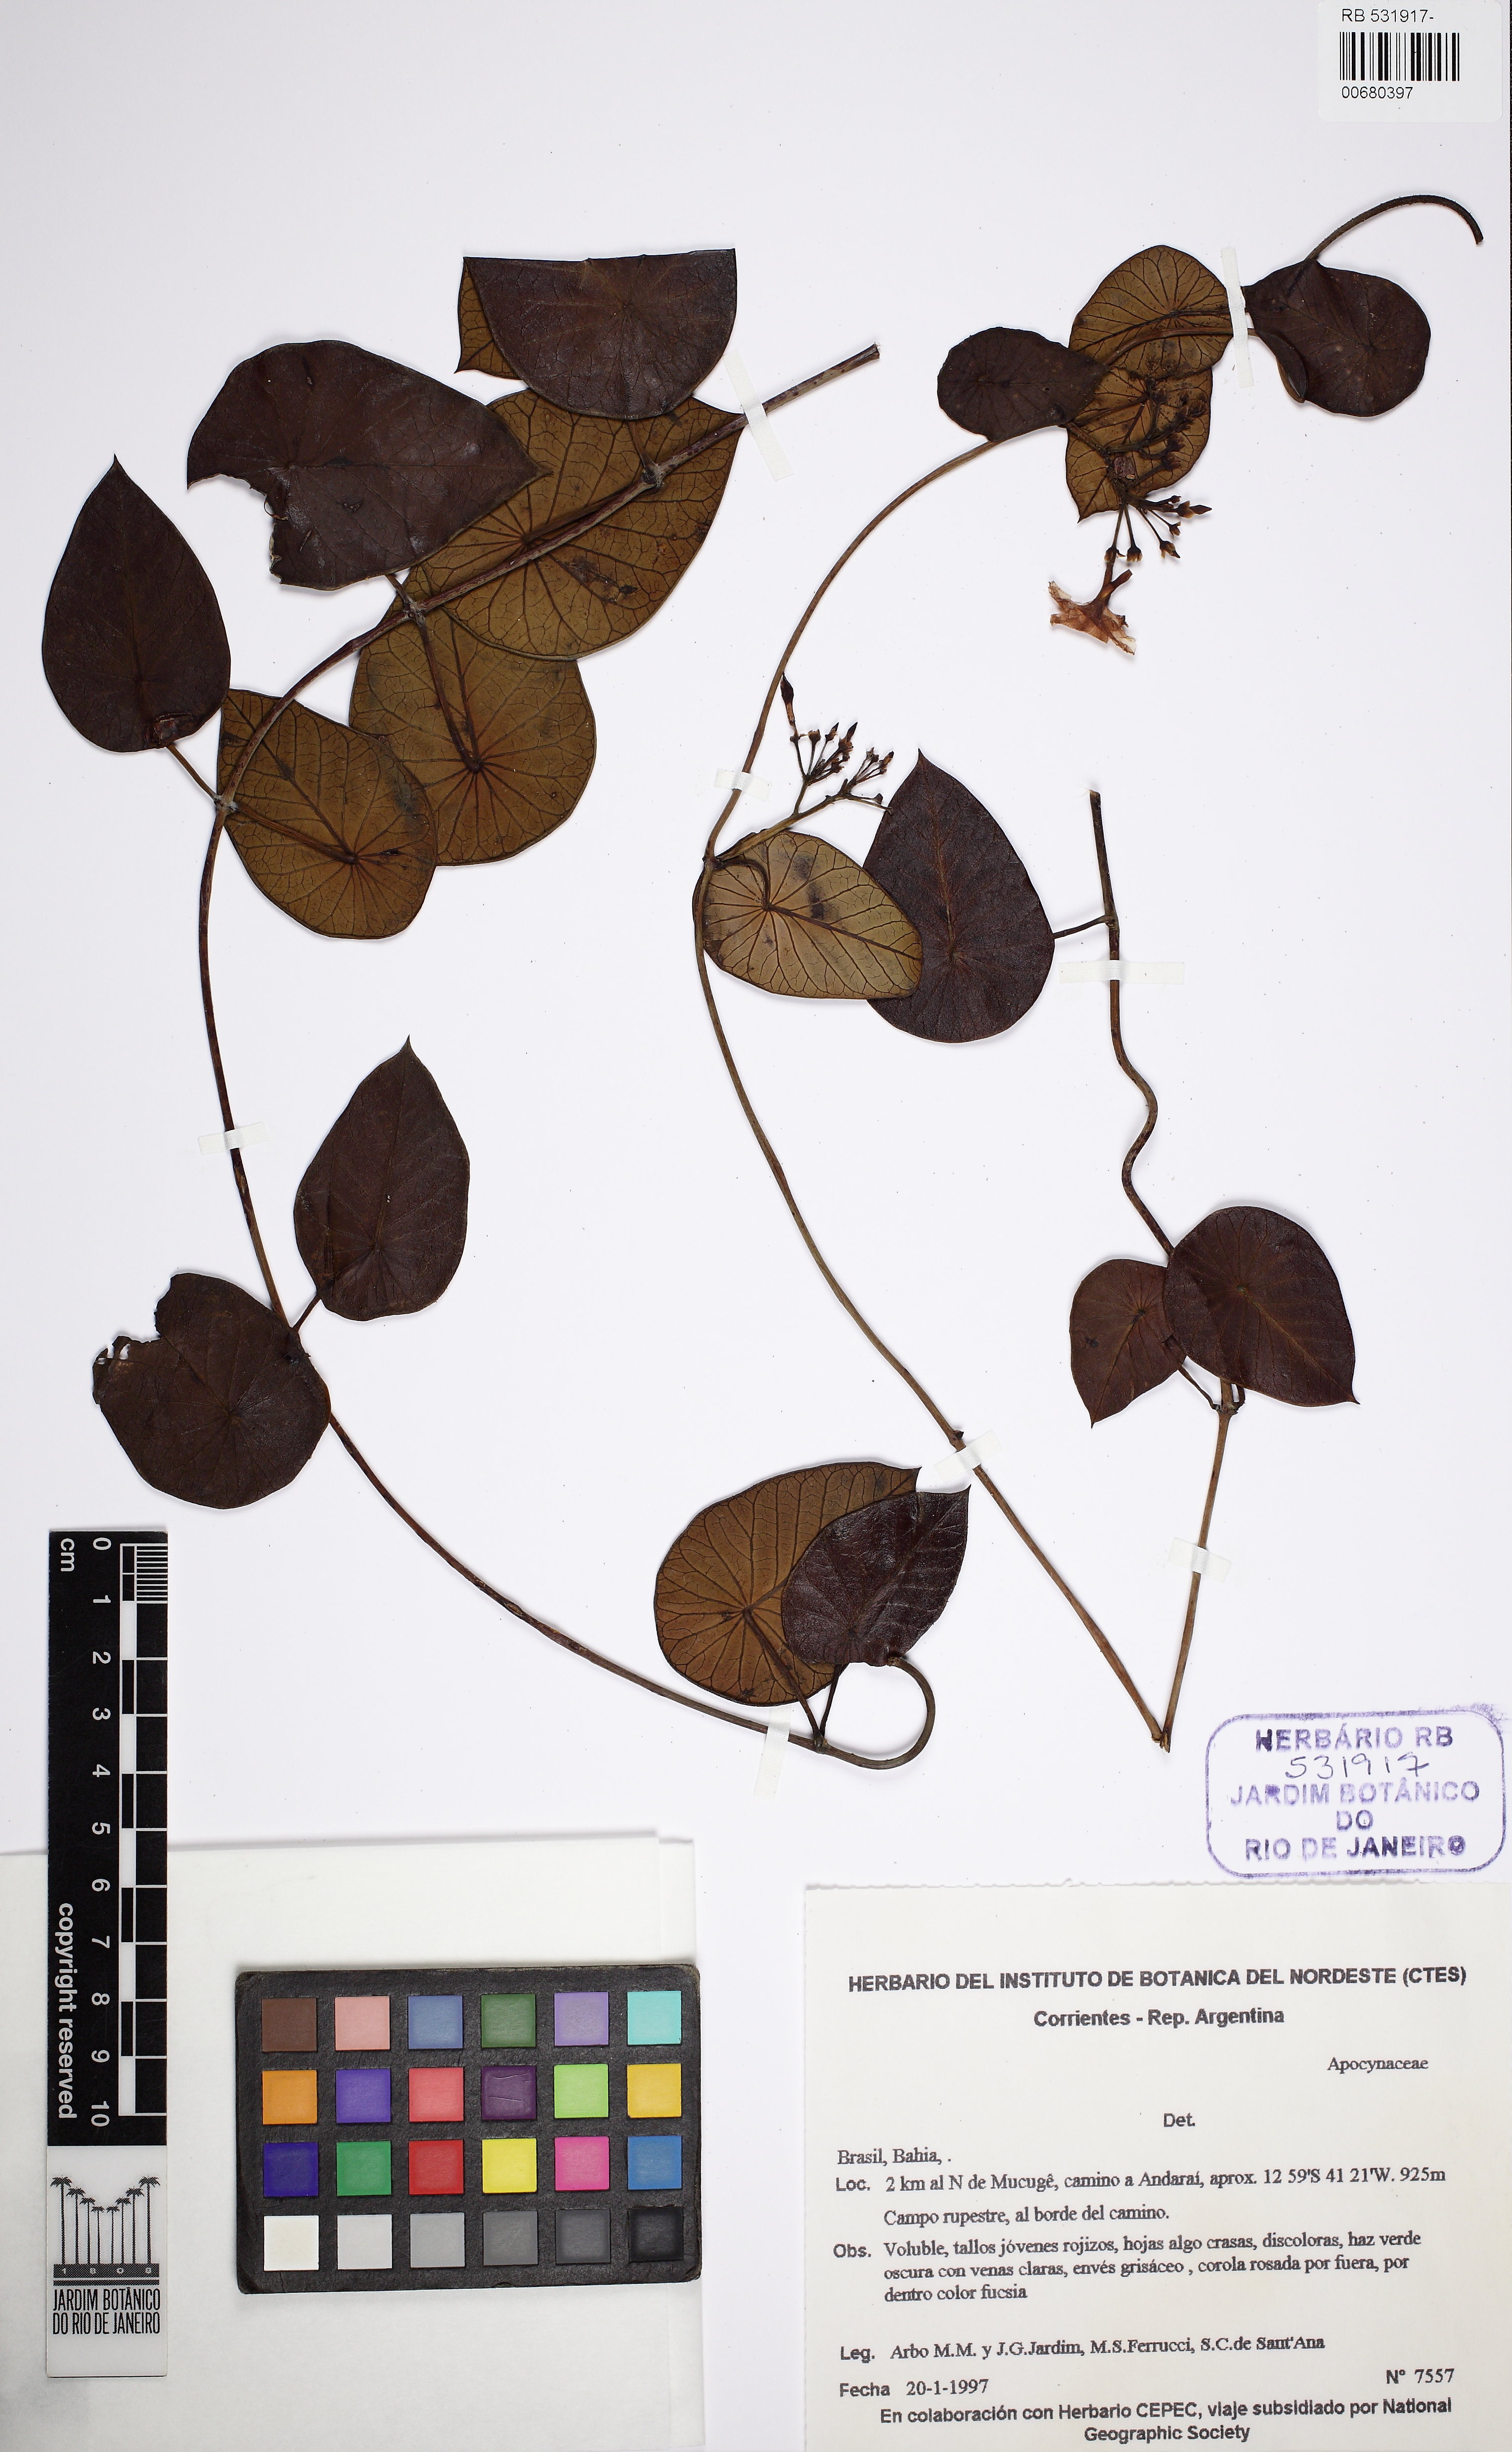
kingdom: Plantae
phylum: Tracheophyta
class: Magnoliopsida
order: Gentianales
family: Apocynaceae
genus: Stipecoma
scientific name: Stipecoma peltigera
